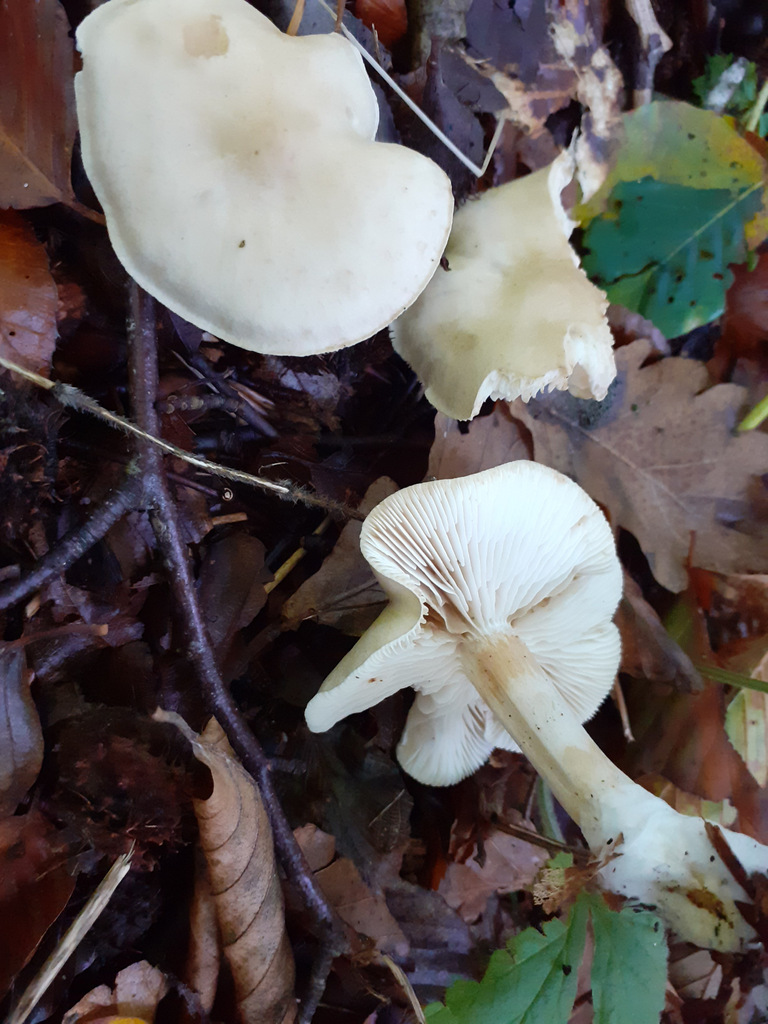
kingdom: Fungi
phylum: Basidiomycota
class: Agaricomycetes
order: Agaricales
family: Tricholomataceae
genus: Tricholoma
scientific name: Tricholoma
